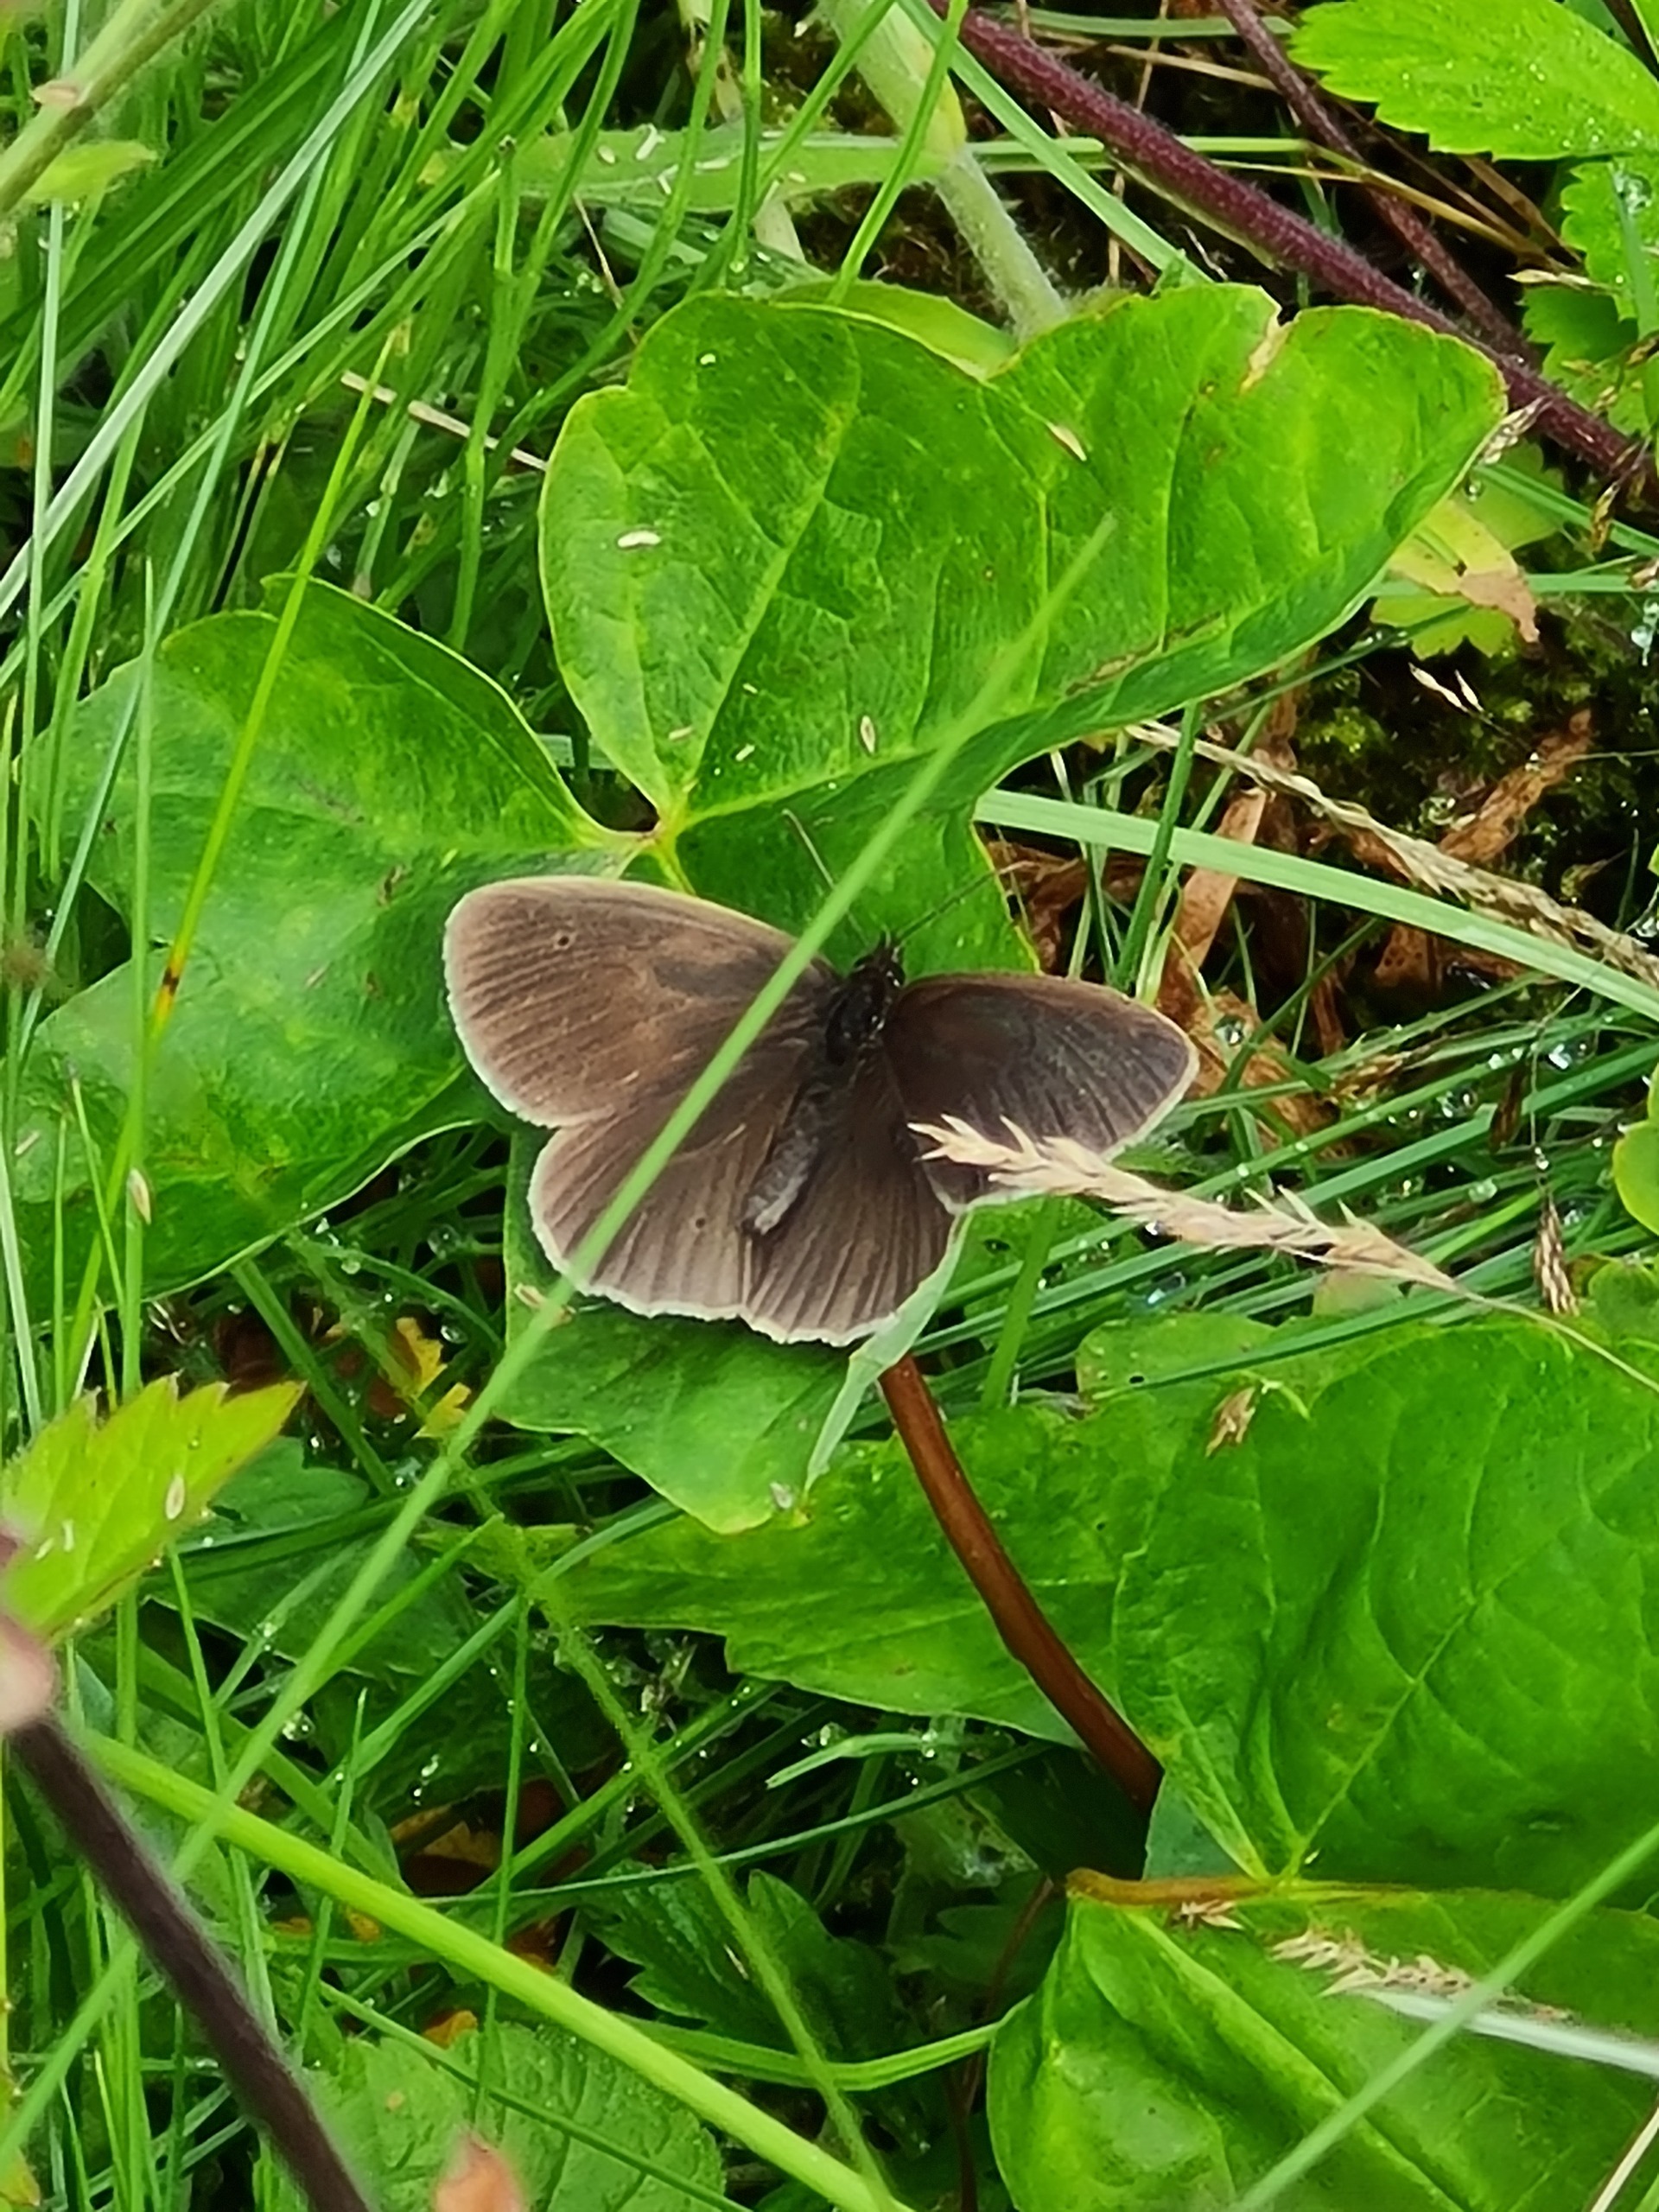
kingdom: Animalia
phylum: Arthropoda
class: Insecta
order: Lepidoptera
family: Nymphalidae
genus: Aphantopus
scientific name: Aphantopus hyperantus
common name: Engrandøje
